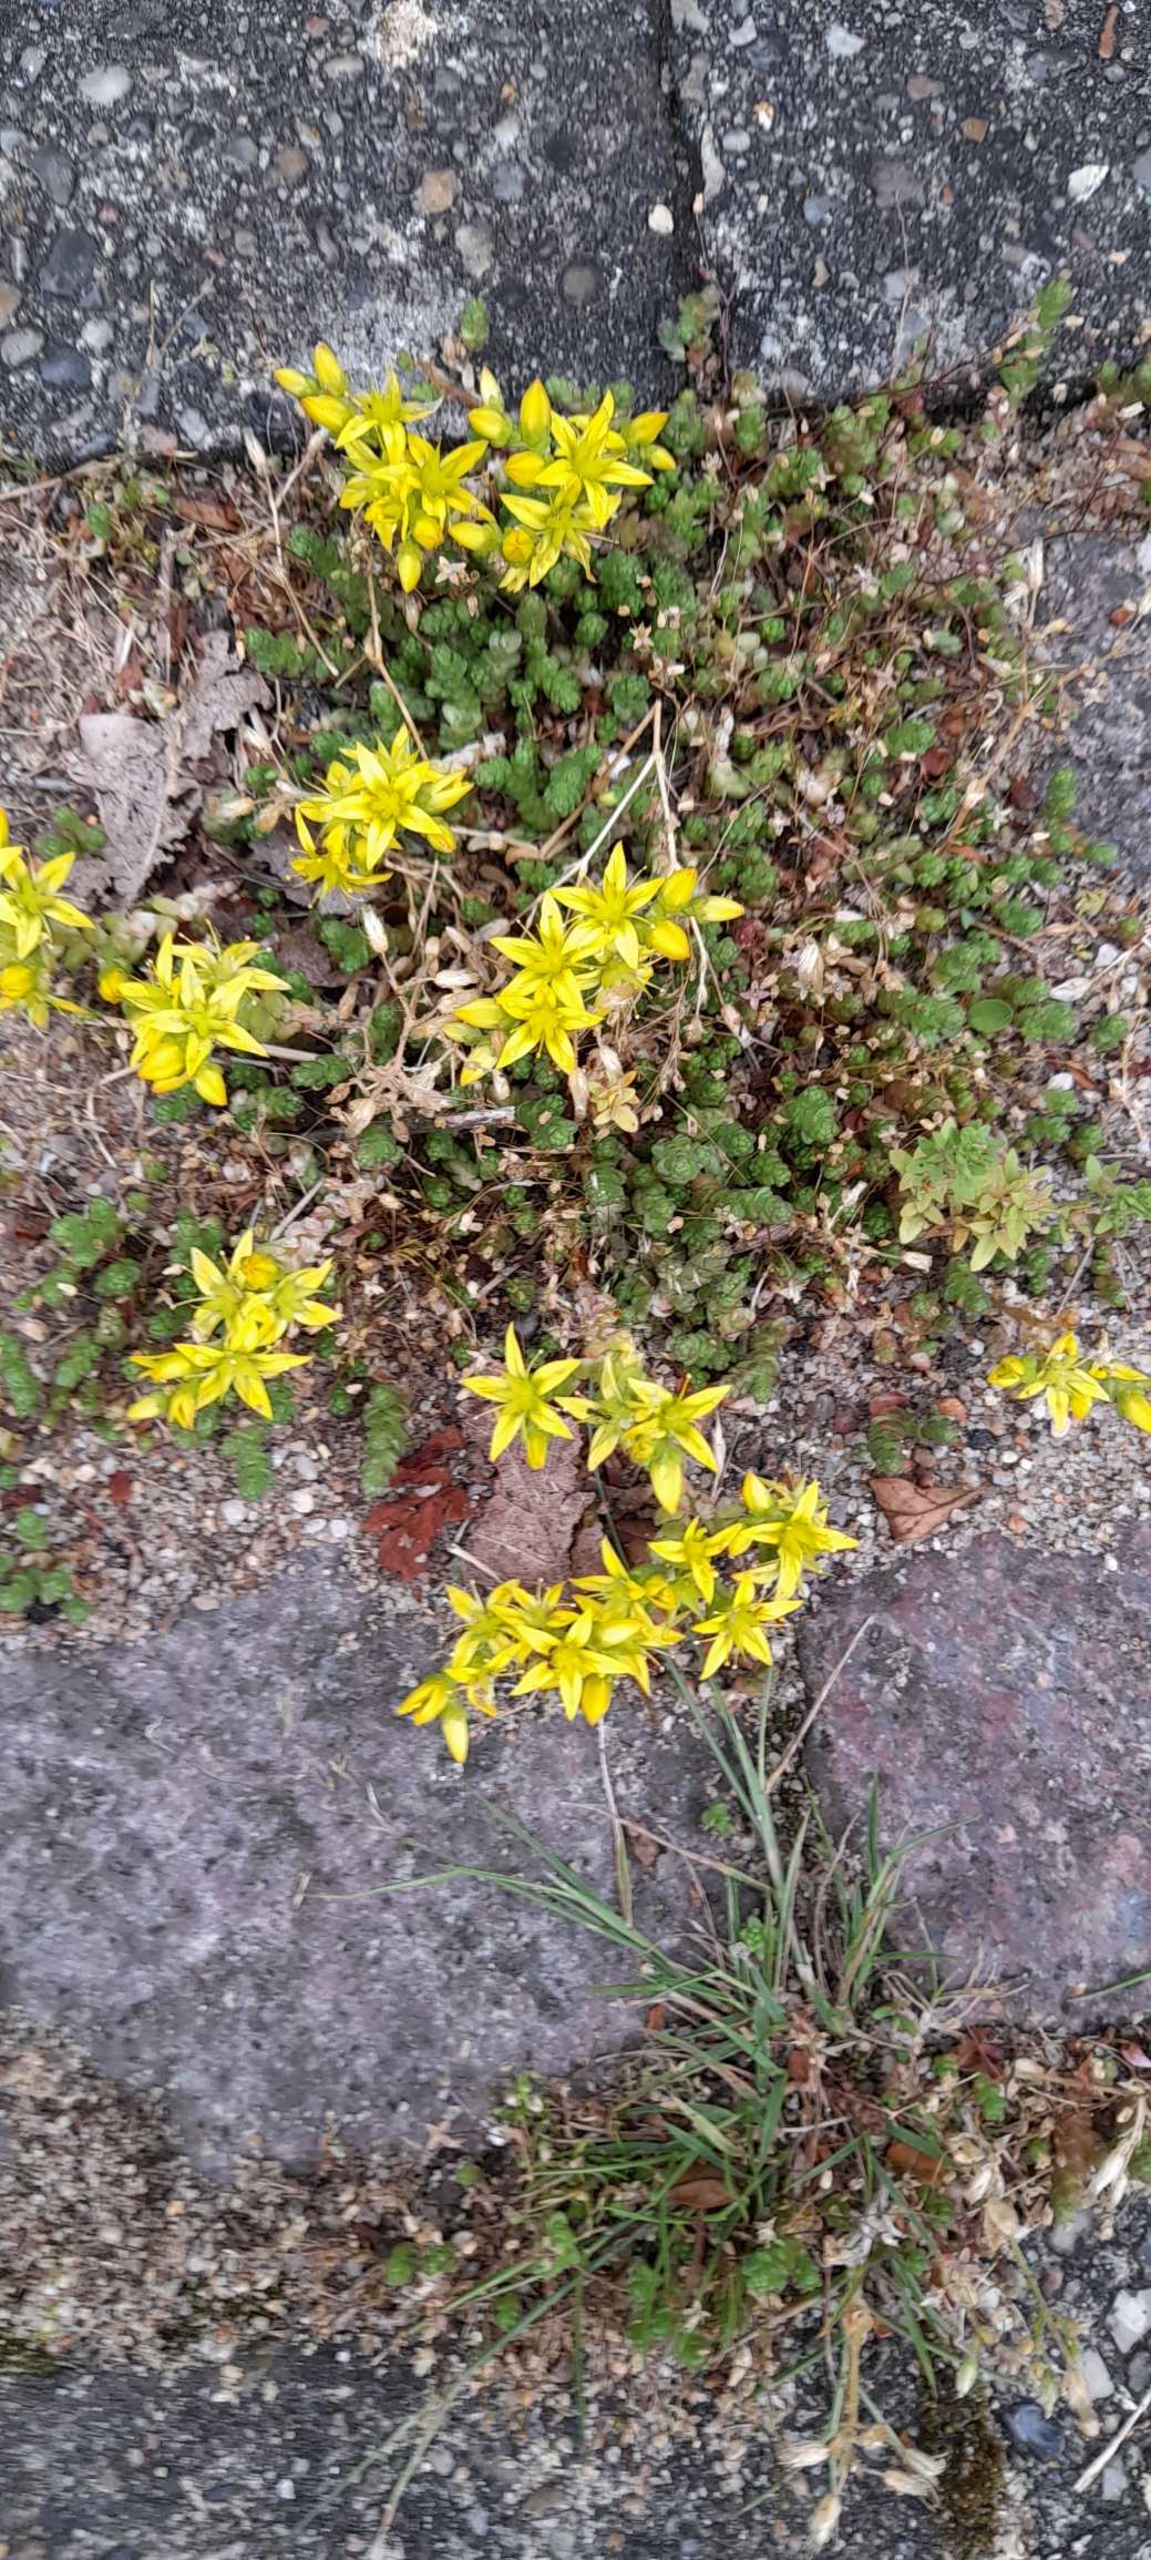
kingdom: Plantae
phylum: Tracheophyta
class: Magnoliopsida
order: Saxifragales
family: Crassulaceae
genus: Sedum
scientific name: Sedum acre
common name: Bidende stenurt
